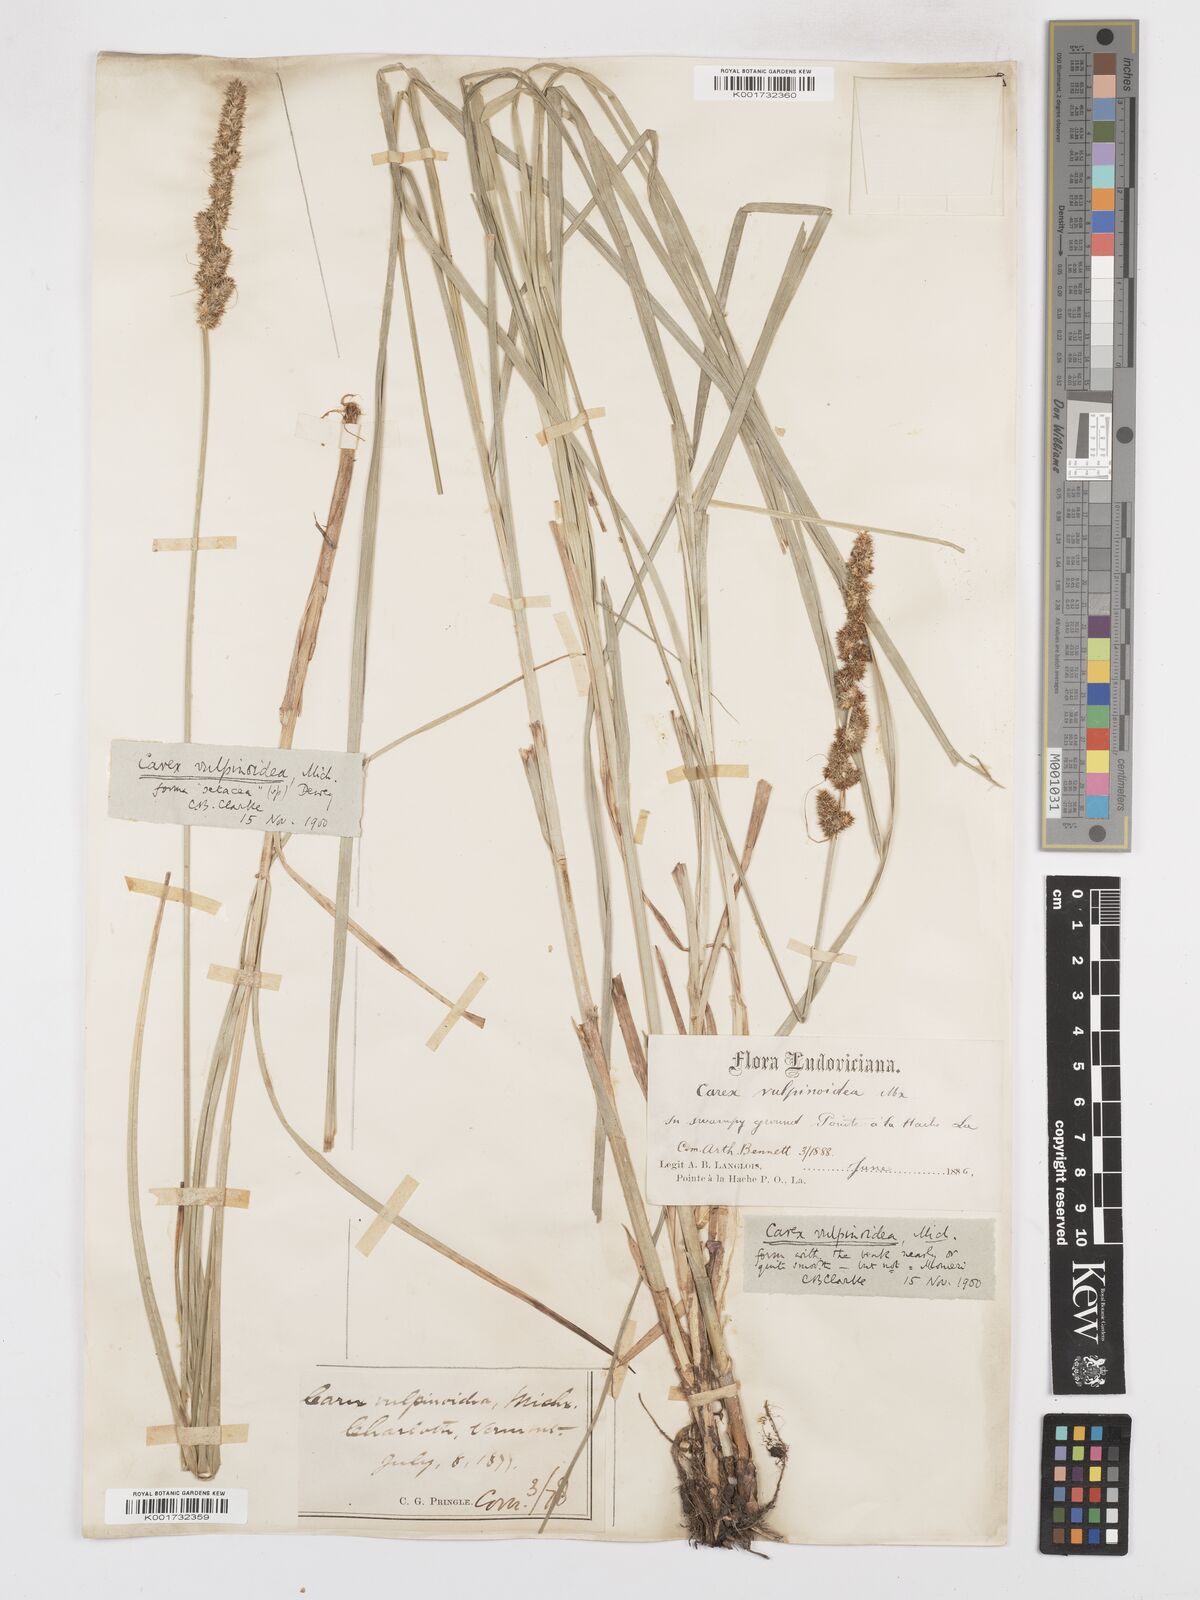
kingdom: Plantae
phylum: Tracheophyta
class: Liliopsida
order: Poales
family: Cyperaceae
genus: Carex
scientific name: Carex vulpinoidea
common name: American fox-sedge
